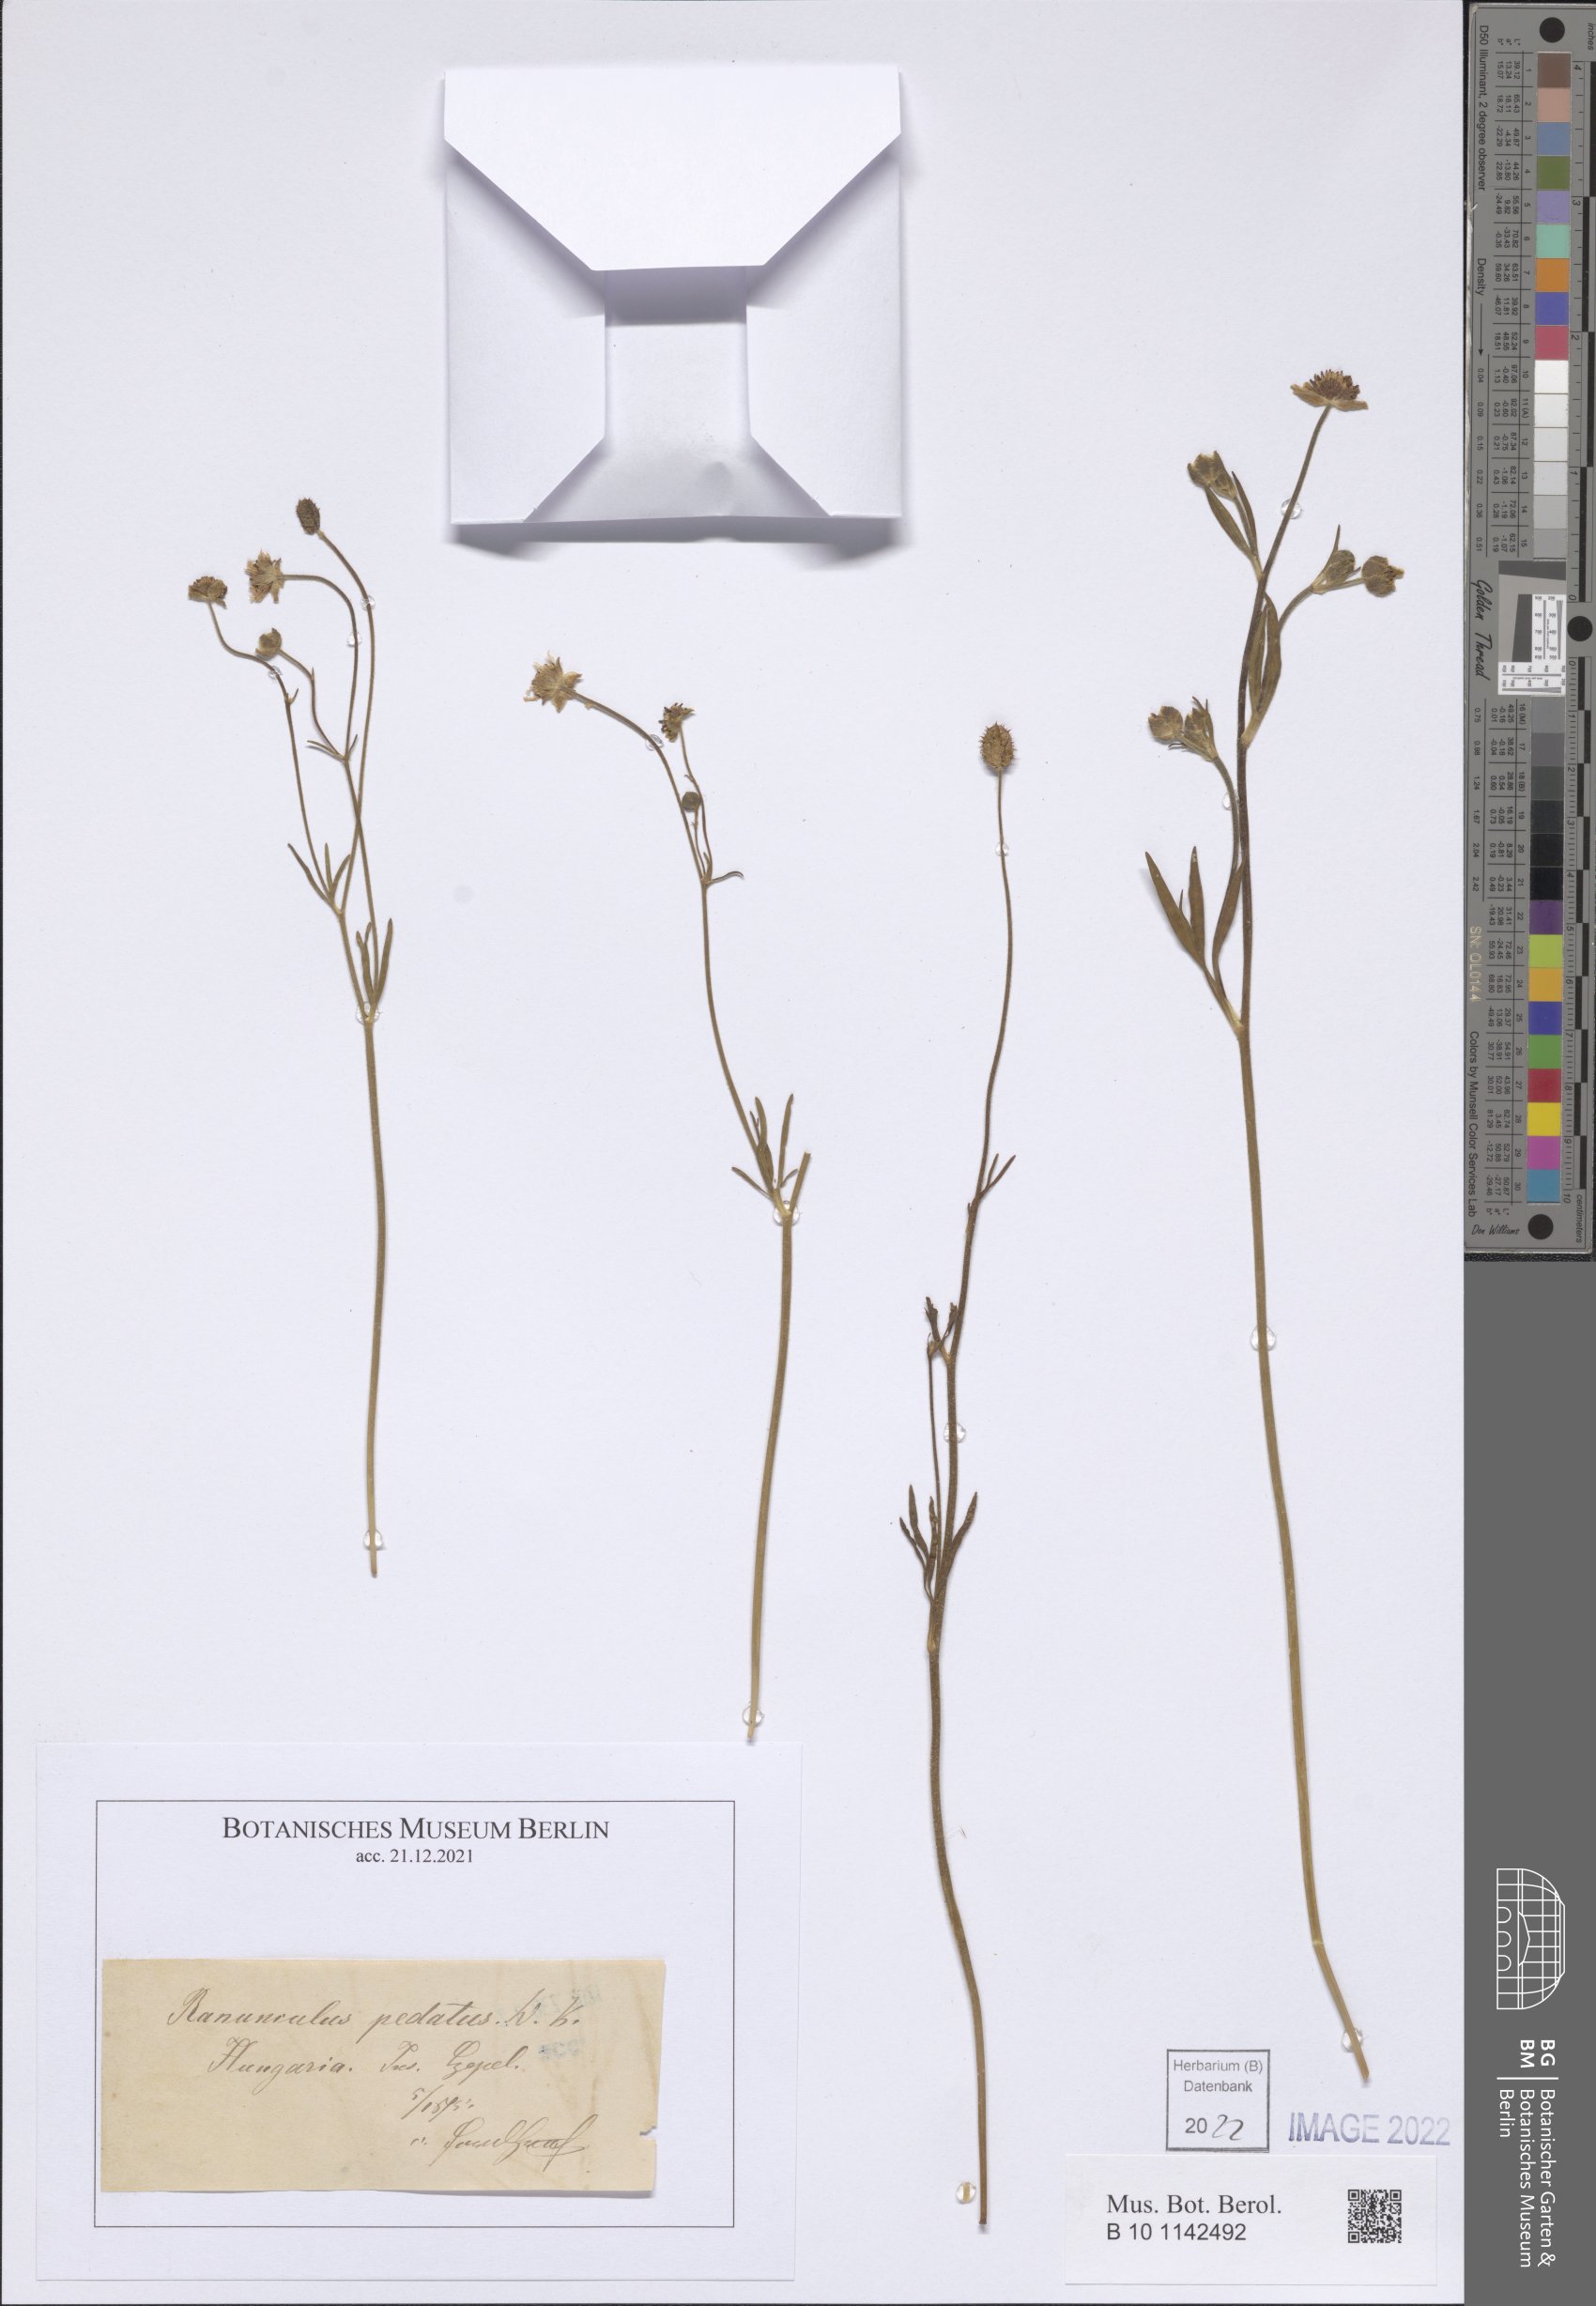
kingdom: Plantae
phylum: Tracheophyta
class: Magnoliopsida
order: Ranunculales
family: Ranunculaceae
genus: Ranunculus
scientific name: Ranunculus pedatus
